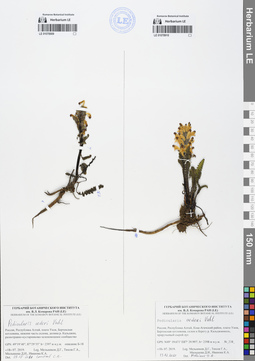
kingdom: Plantae
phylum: Tracheophyta
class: Magnoliopsida
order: Lamiales
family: Orobanchaceae
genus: Pedicularis
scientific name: Pedicularis oederi
